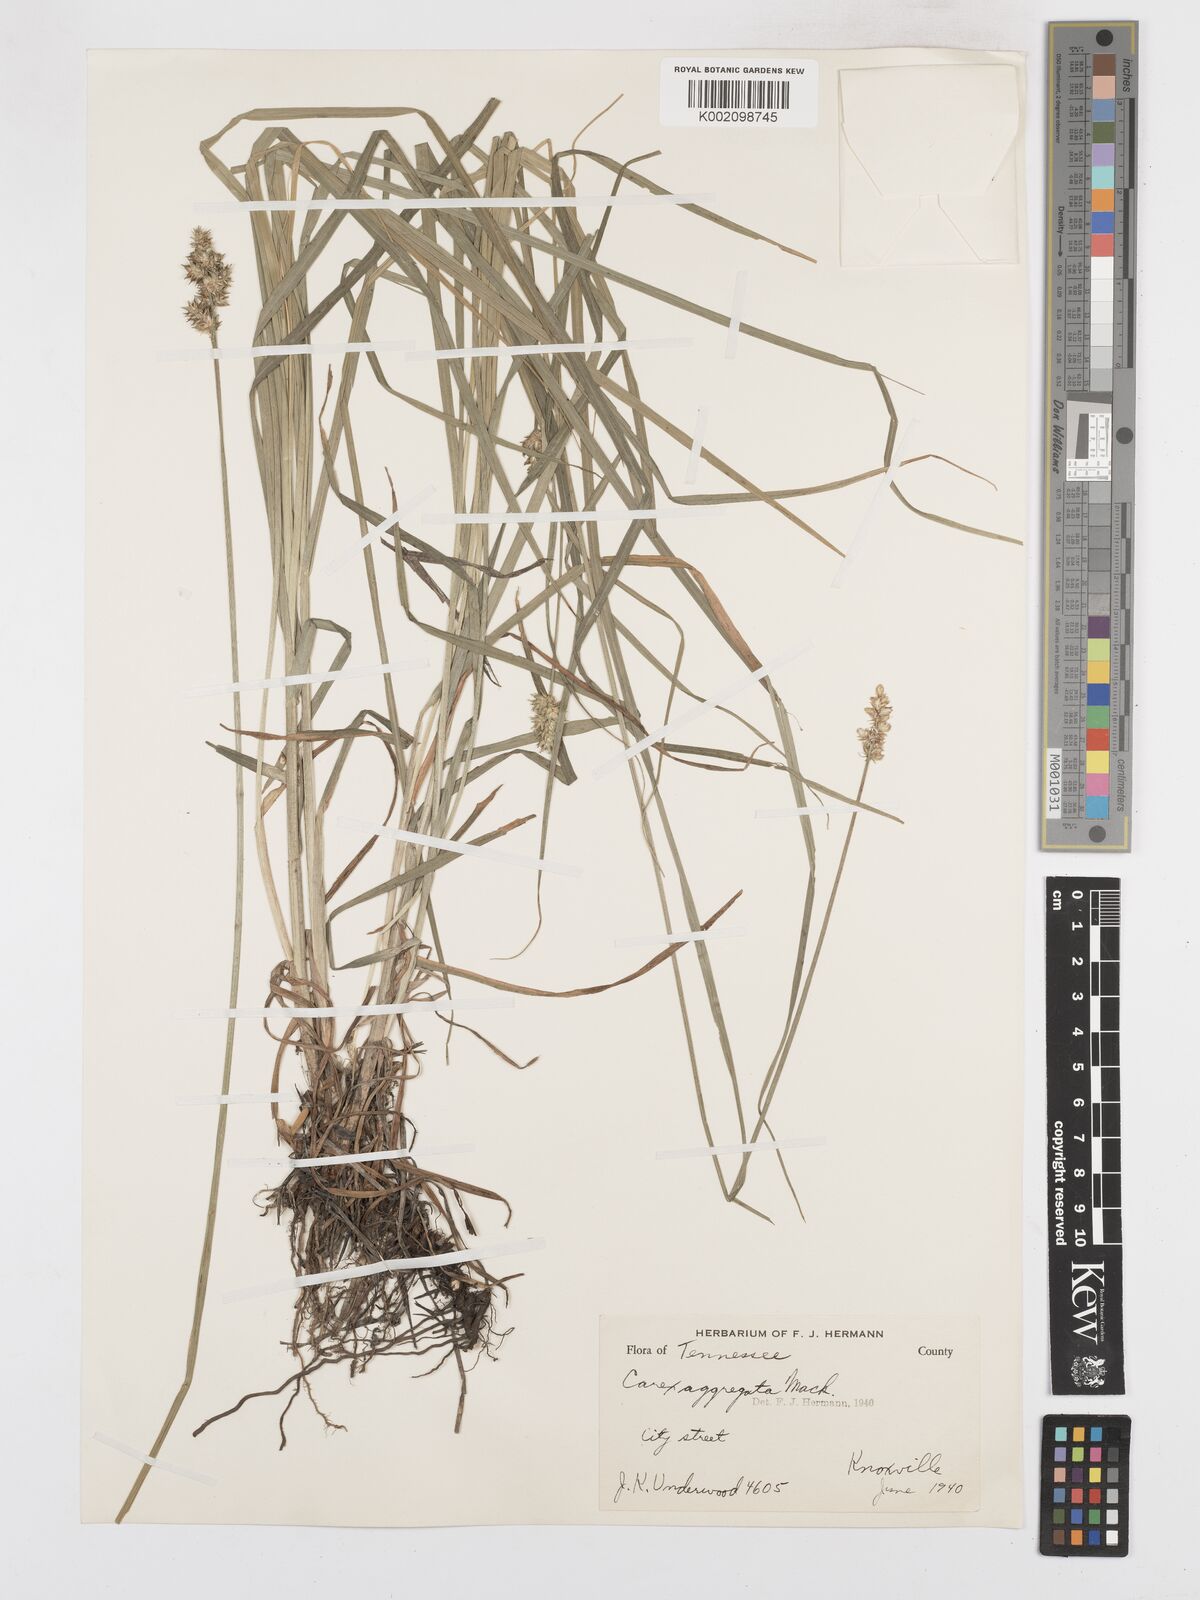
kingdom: Plantae
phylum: Tracheophyta
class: Liliopsida
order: Poales
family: Cyperaceae
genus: Carex
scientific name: Carex aggregata
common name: Crowded sedge
